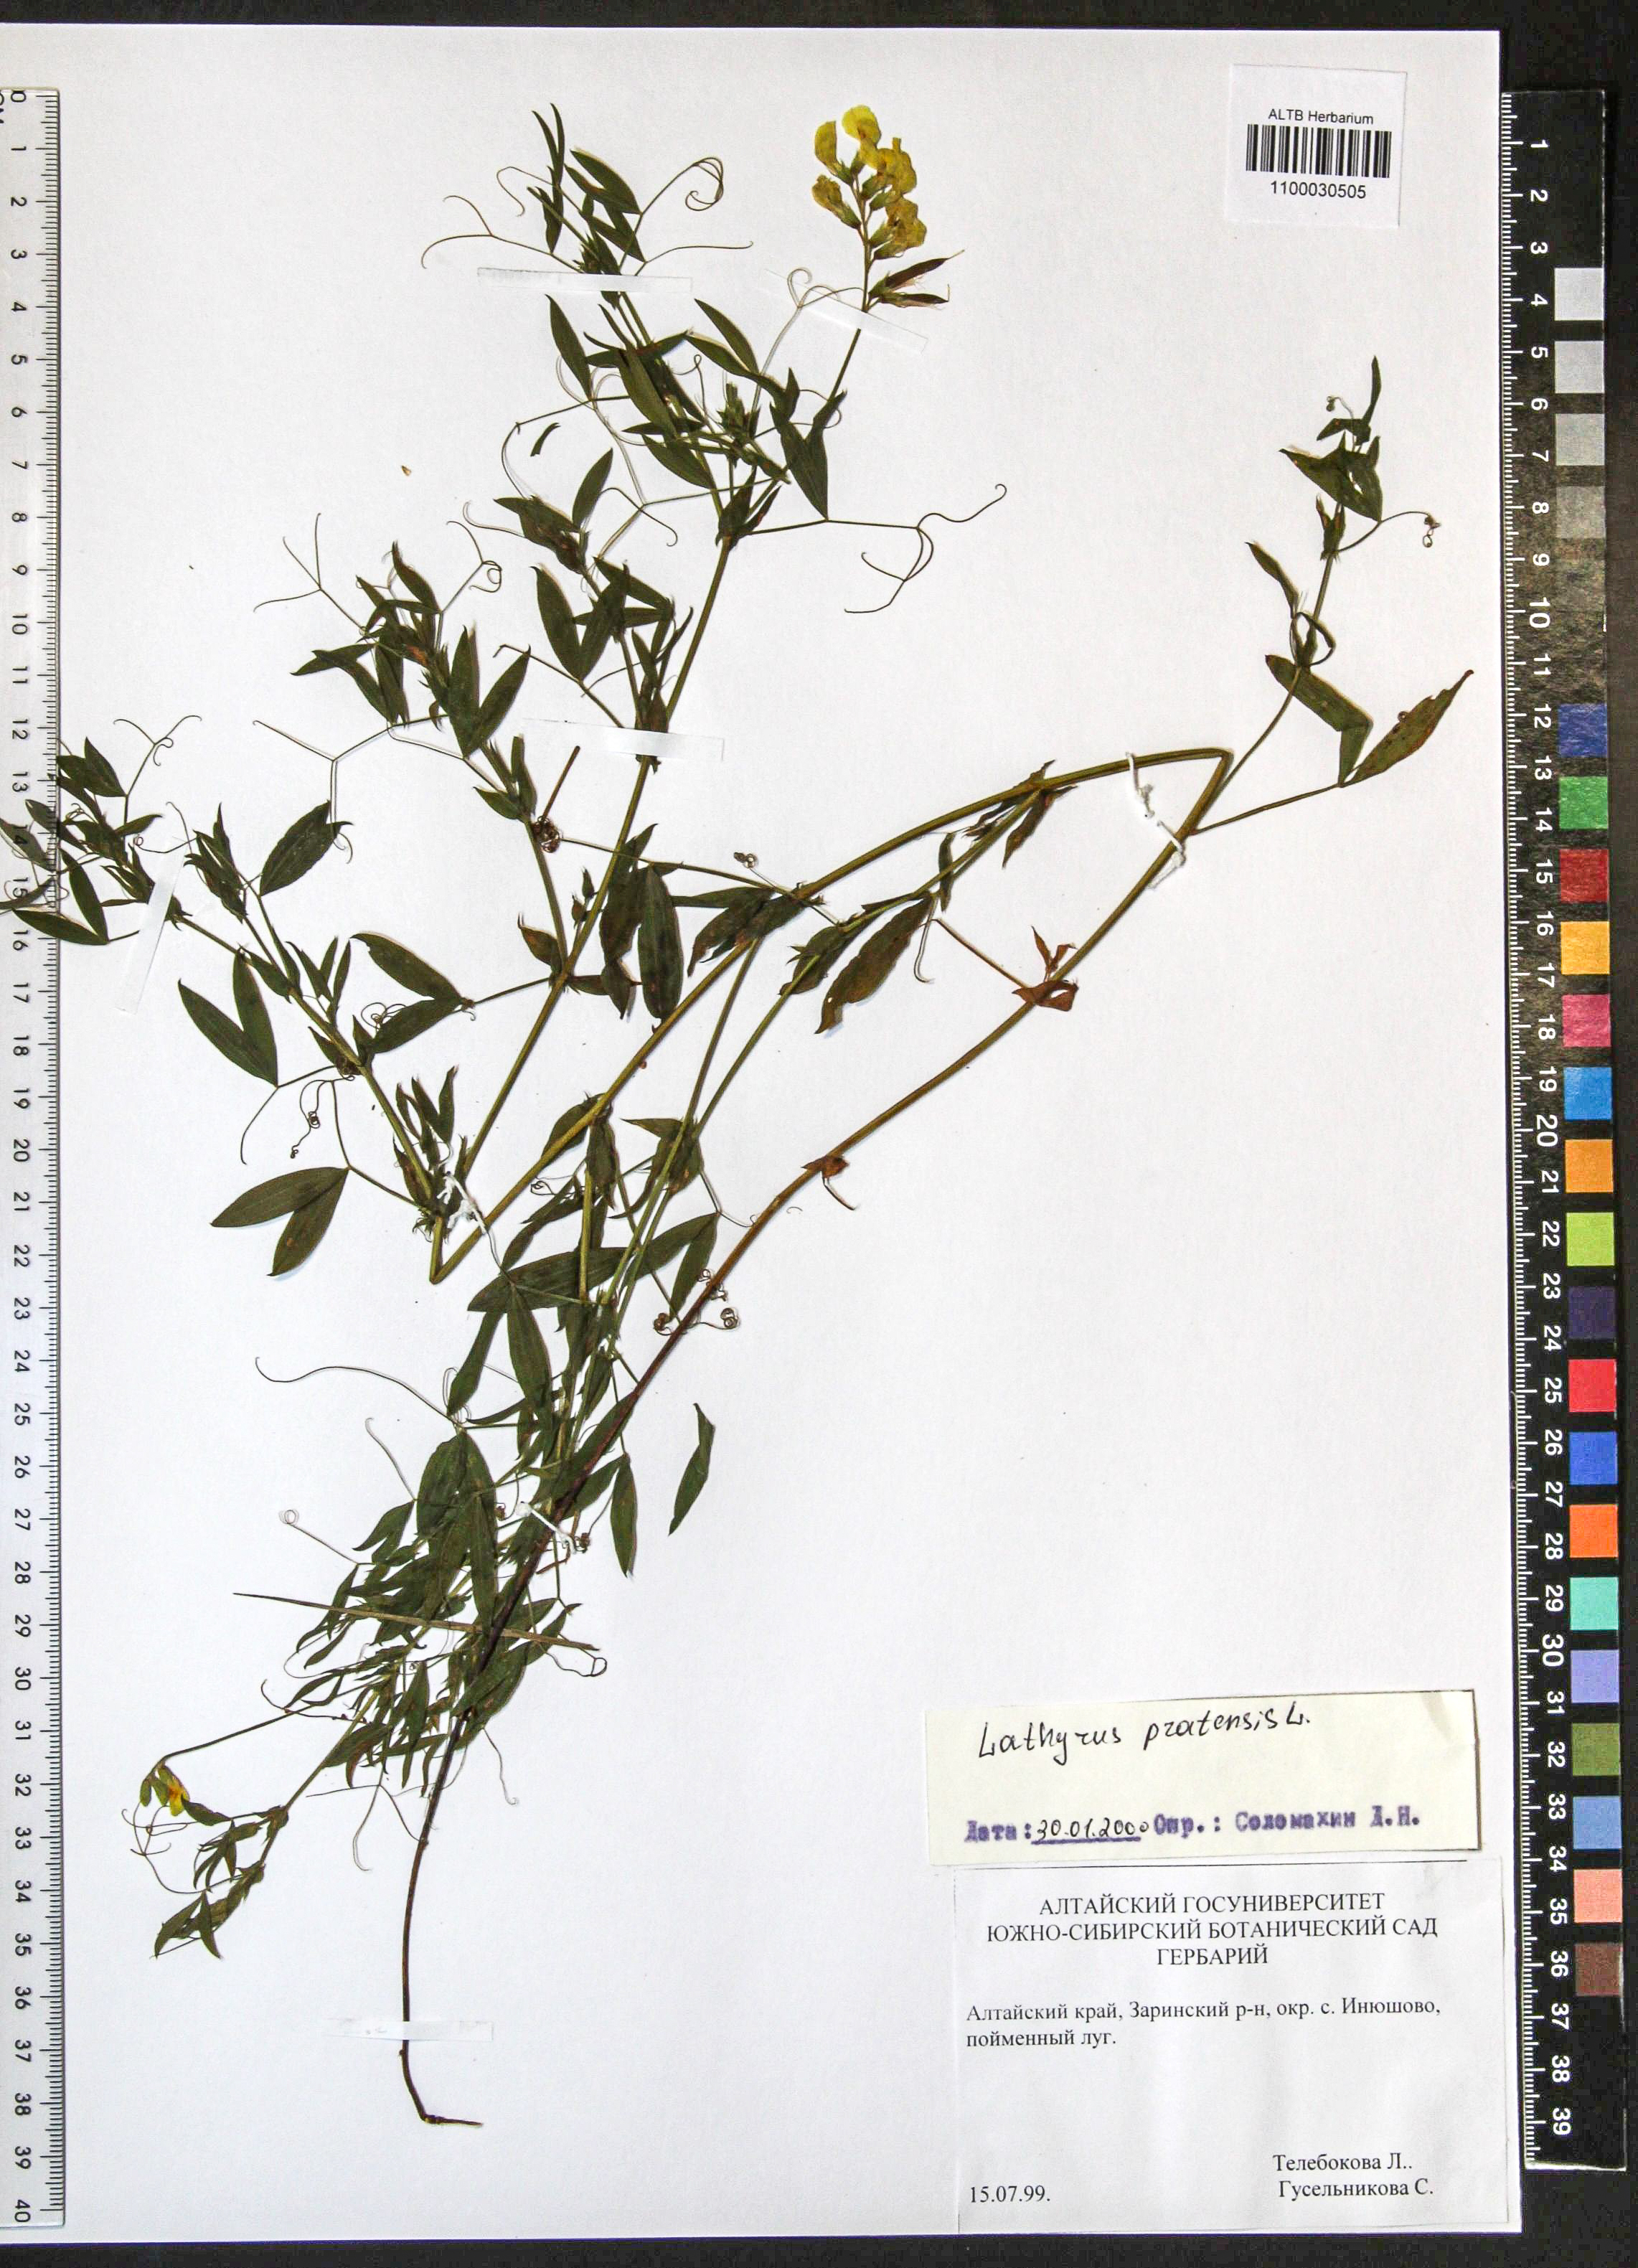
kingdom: Plantae
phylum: Tracheophyta
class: Magnoliopsida
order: Fabales
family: Fabaceae
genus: Lathyrus
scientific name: Lathyrus pratensis
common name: Meadow vetchling
